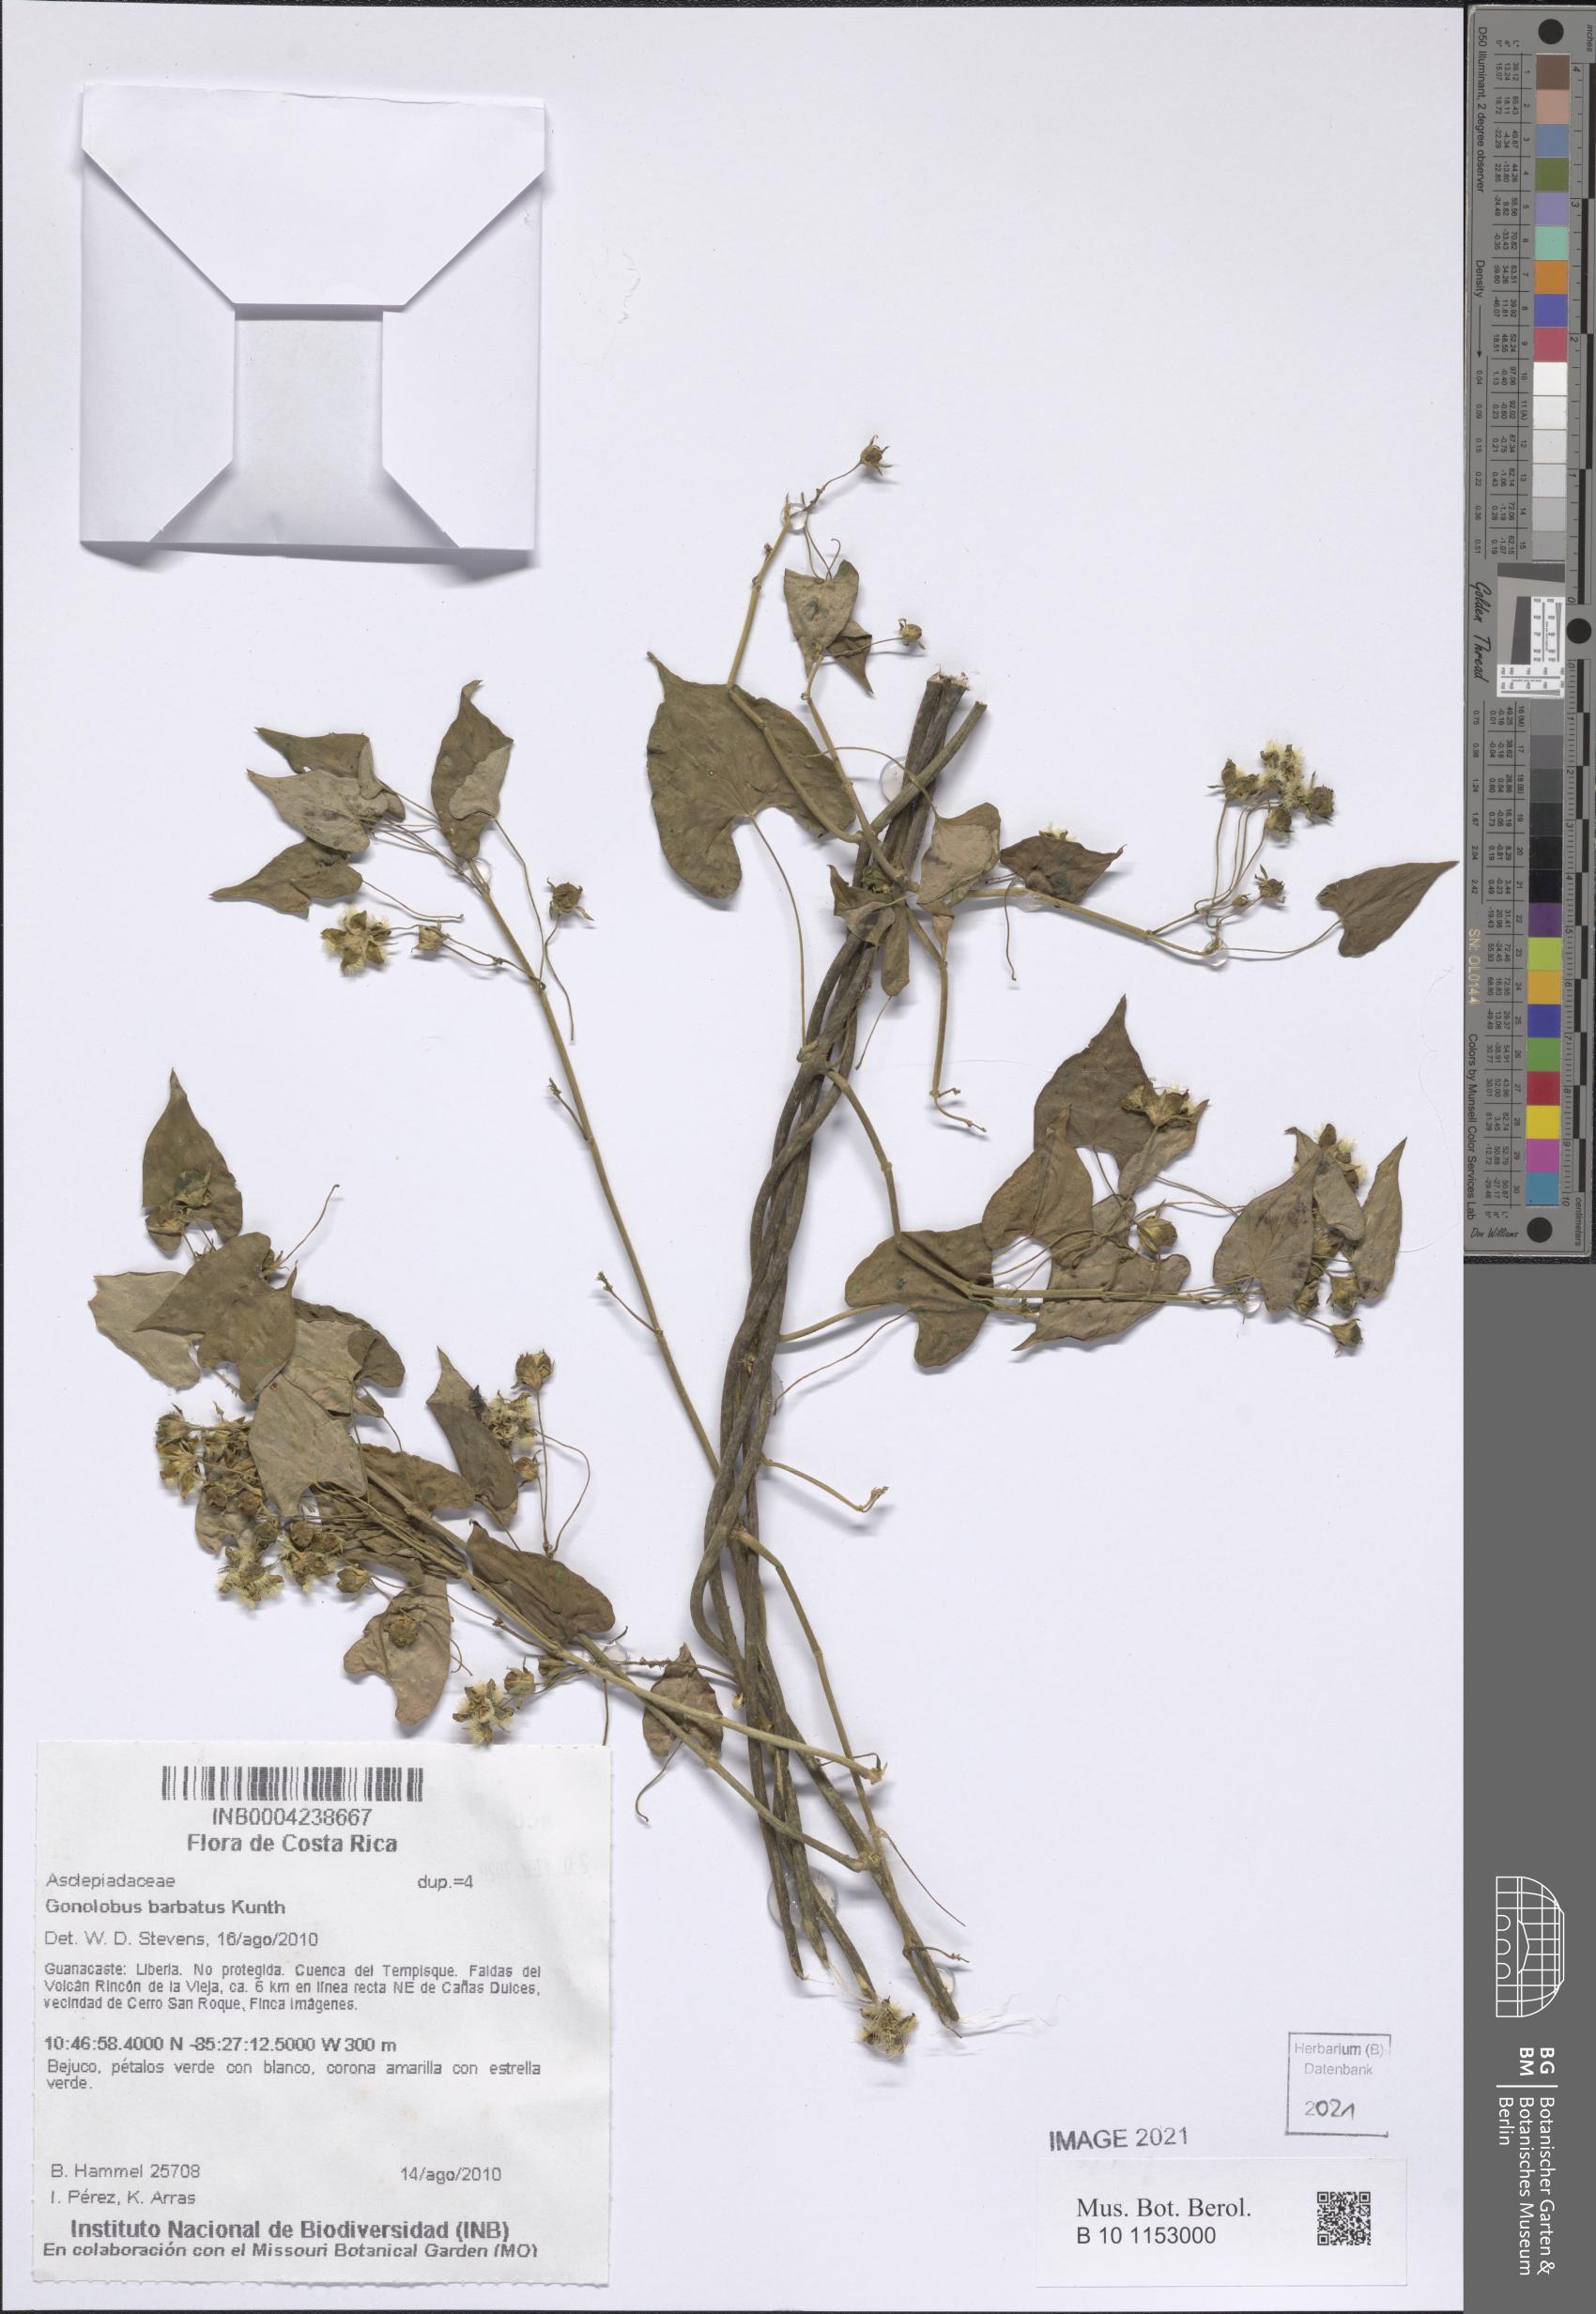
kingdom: Plantae
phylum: Tracheophyta
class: Magnoliopsida
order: Gentianales
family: Apocynaceae
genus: Gonolobus
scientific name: Gonolobus barbatus
